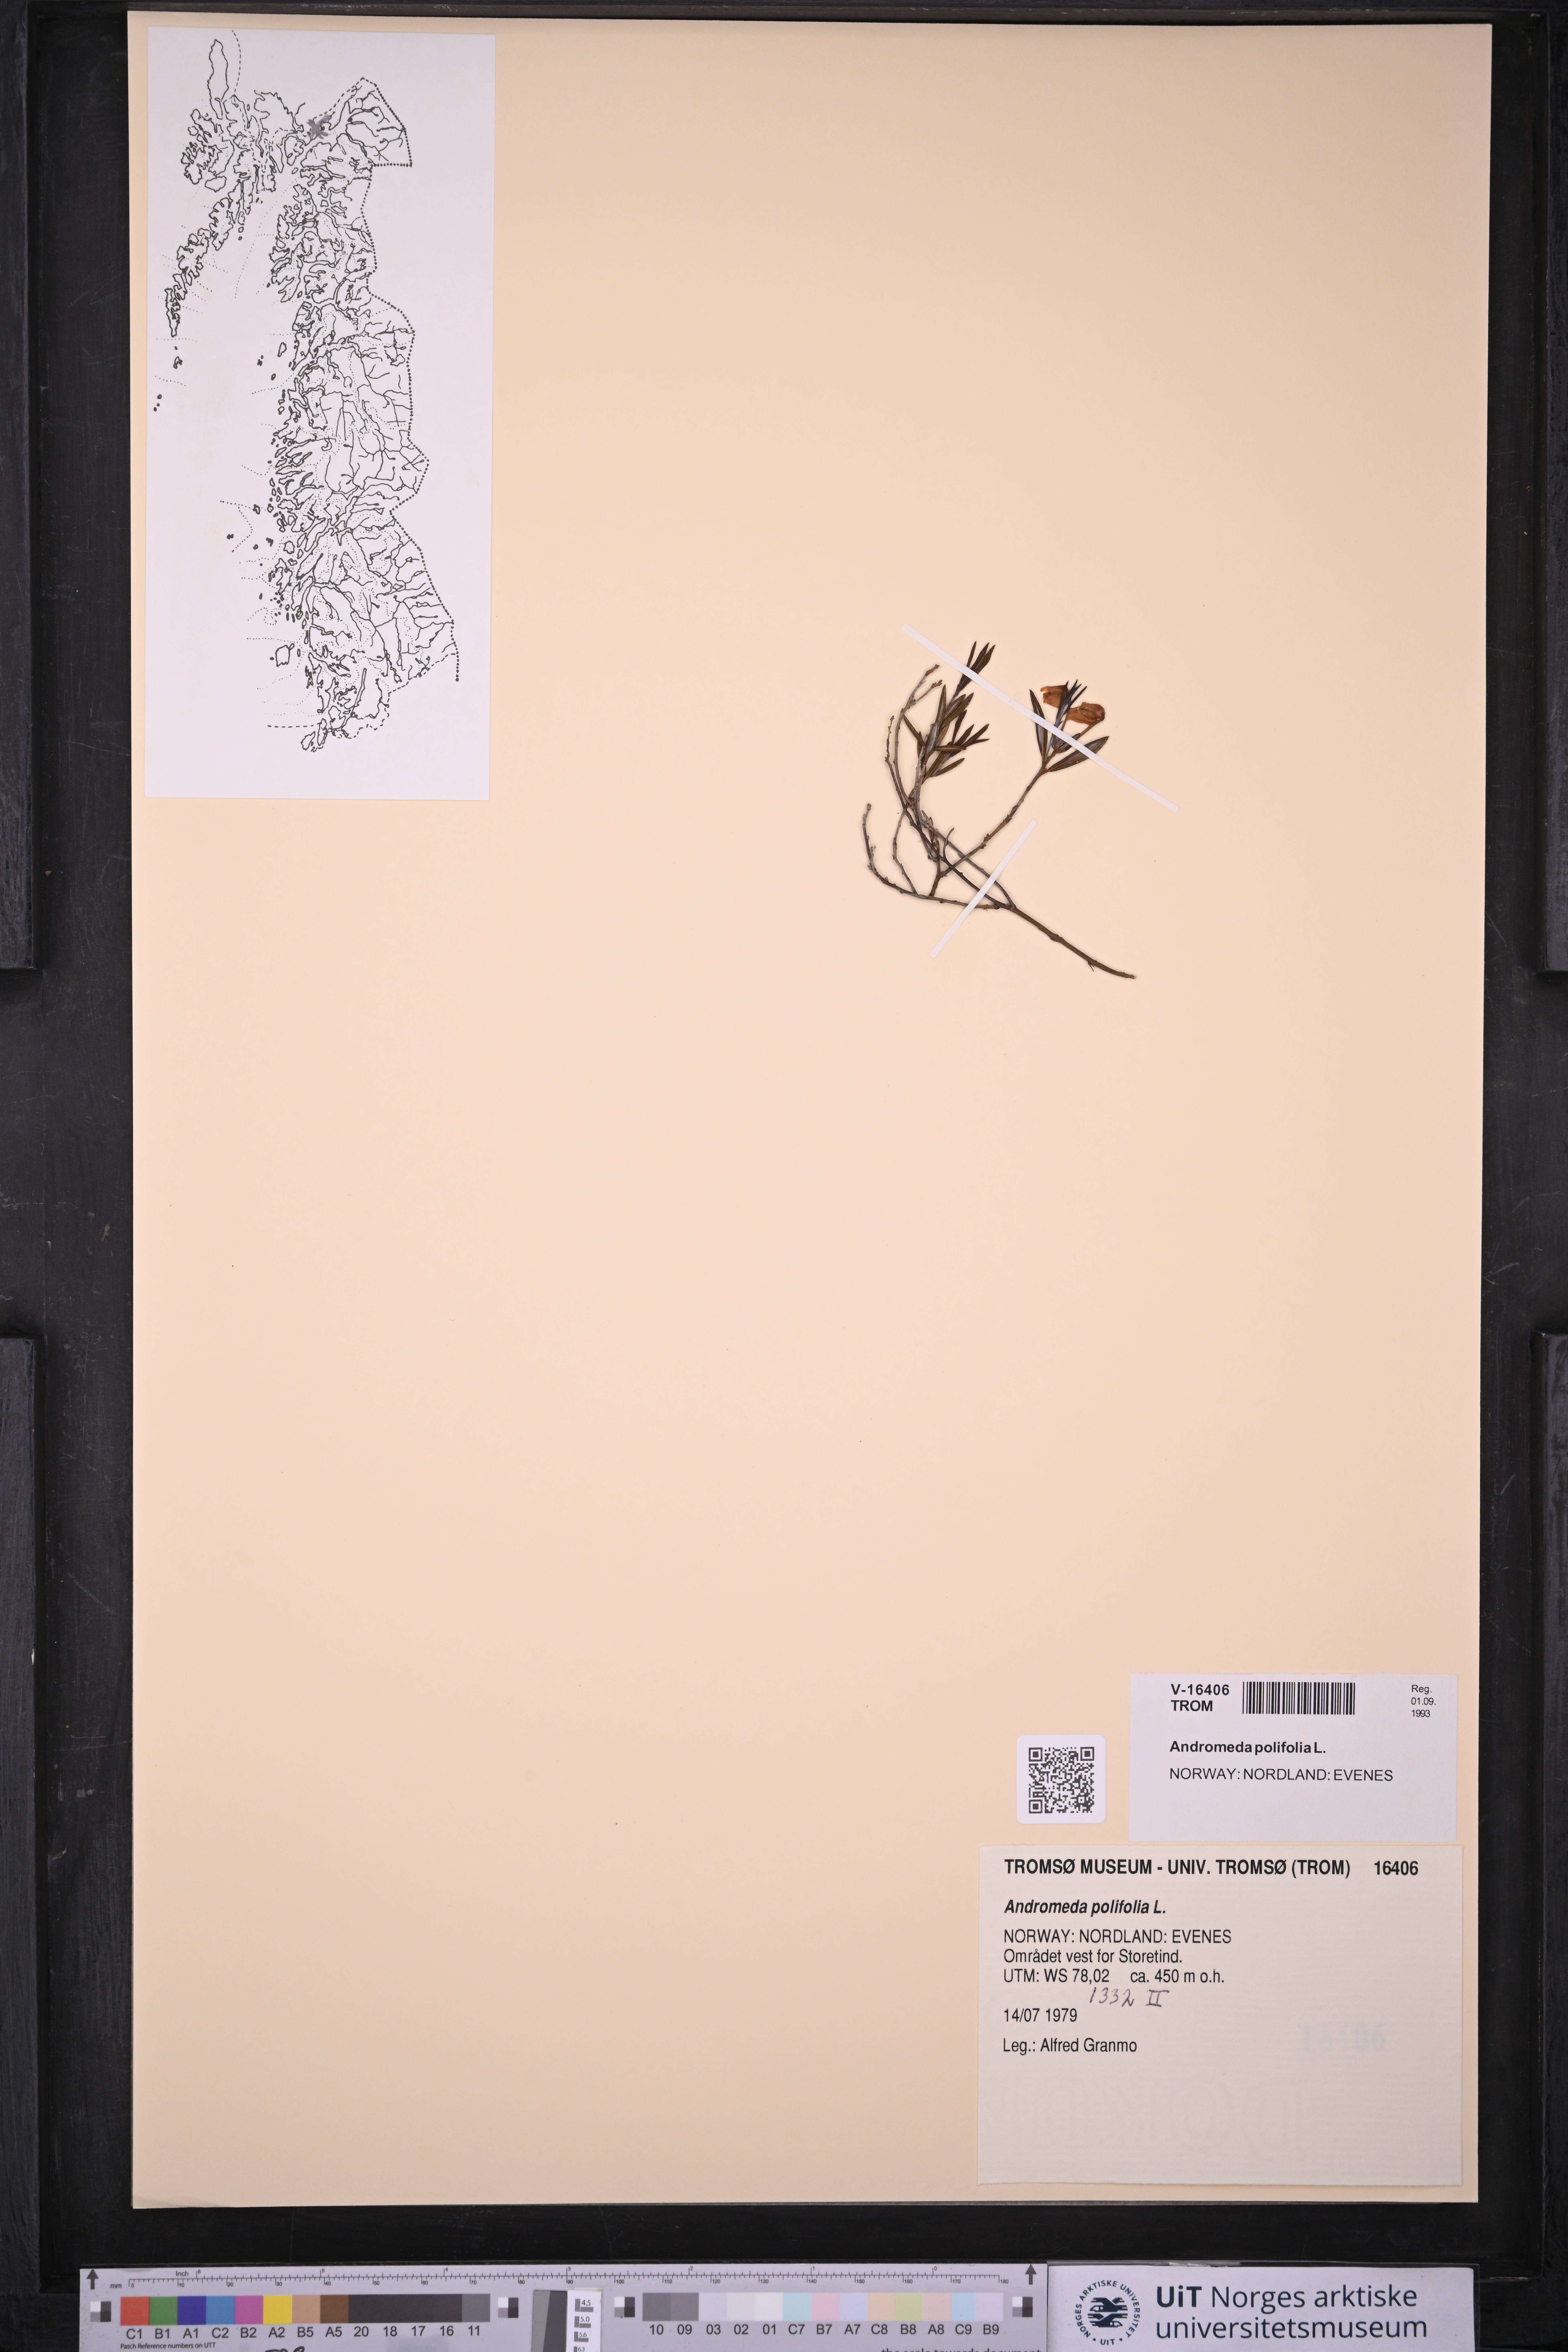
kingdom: Plantae
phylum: Tracheophyta
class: Magnoliopsida
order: Ericales
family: Ericaceae
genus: Andromeda
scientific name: Andromeda polifolia
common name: Bog-rosemary
